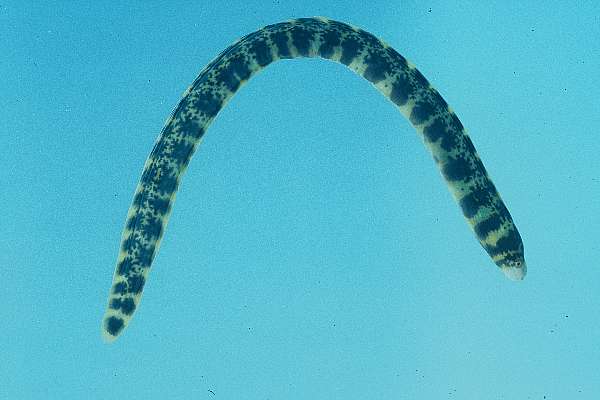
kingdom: Animalia
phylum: Chordata
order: Anguilliformes
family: Muraenidae
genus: Echidna
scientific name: Echidna nebulosa
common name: Snowflake moray
